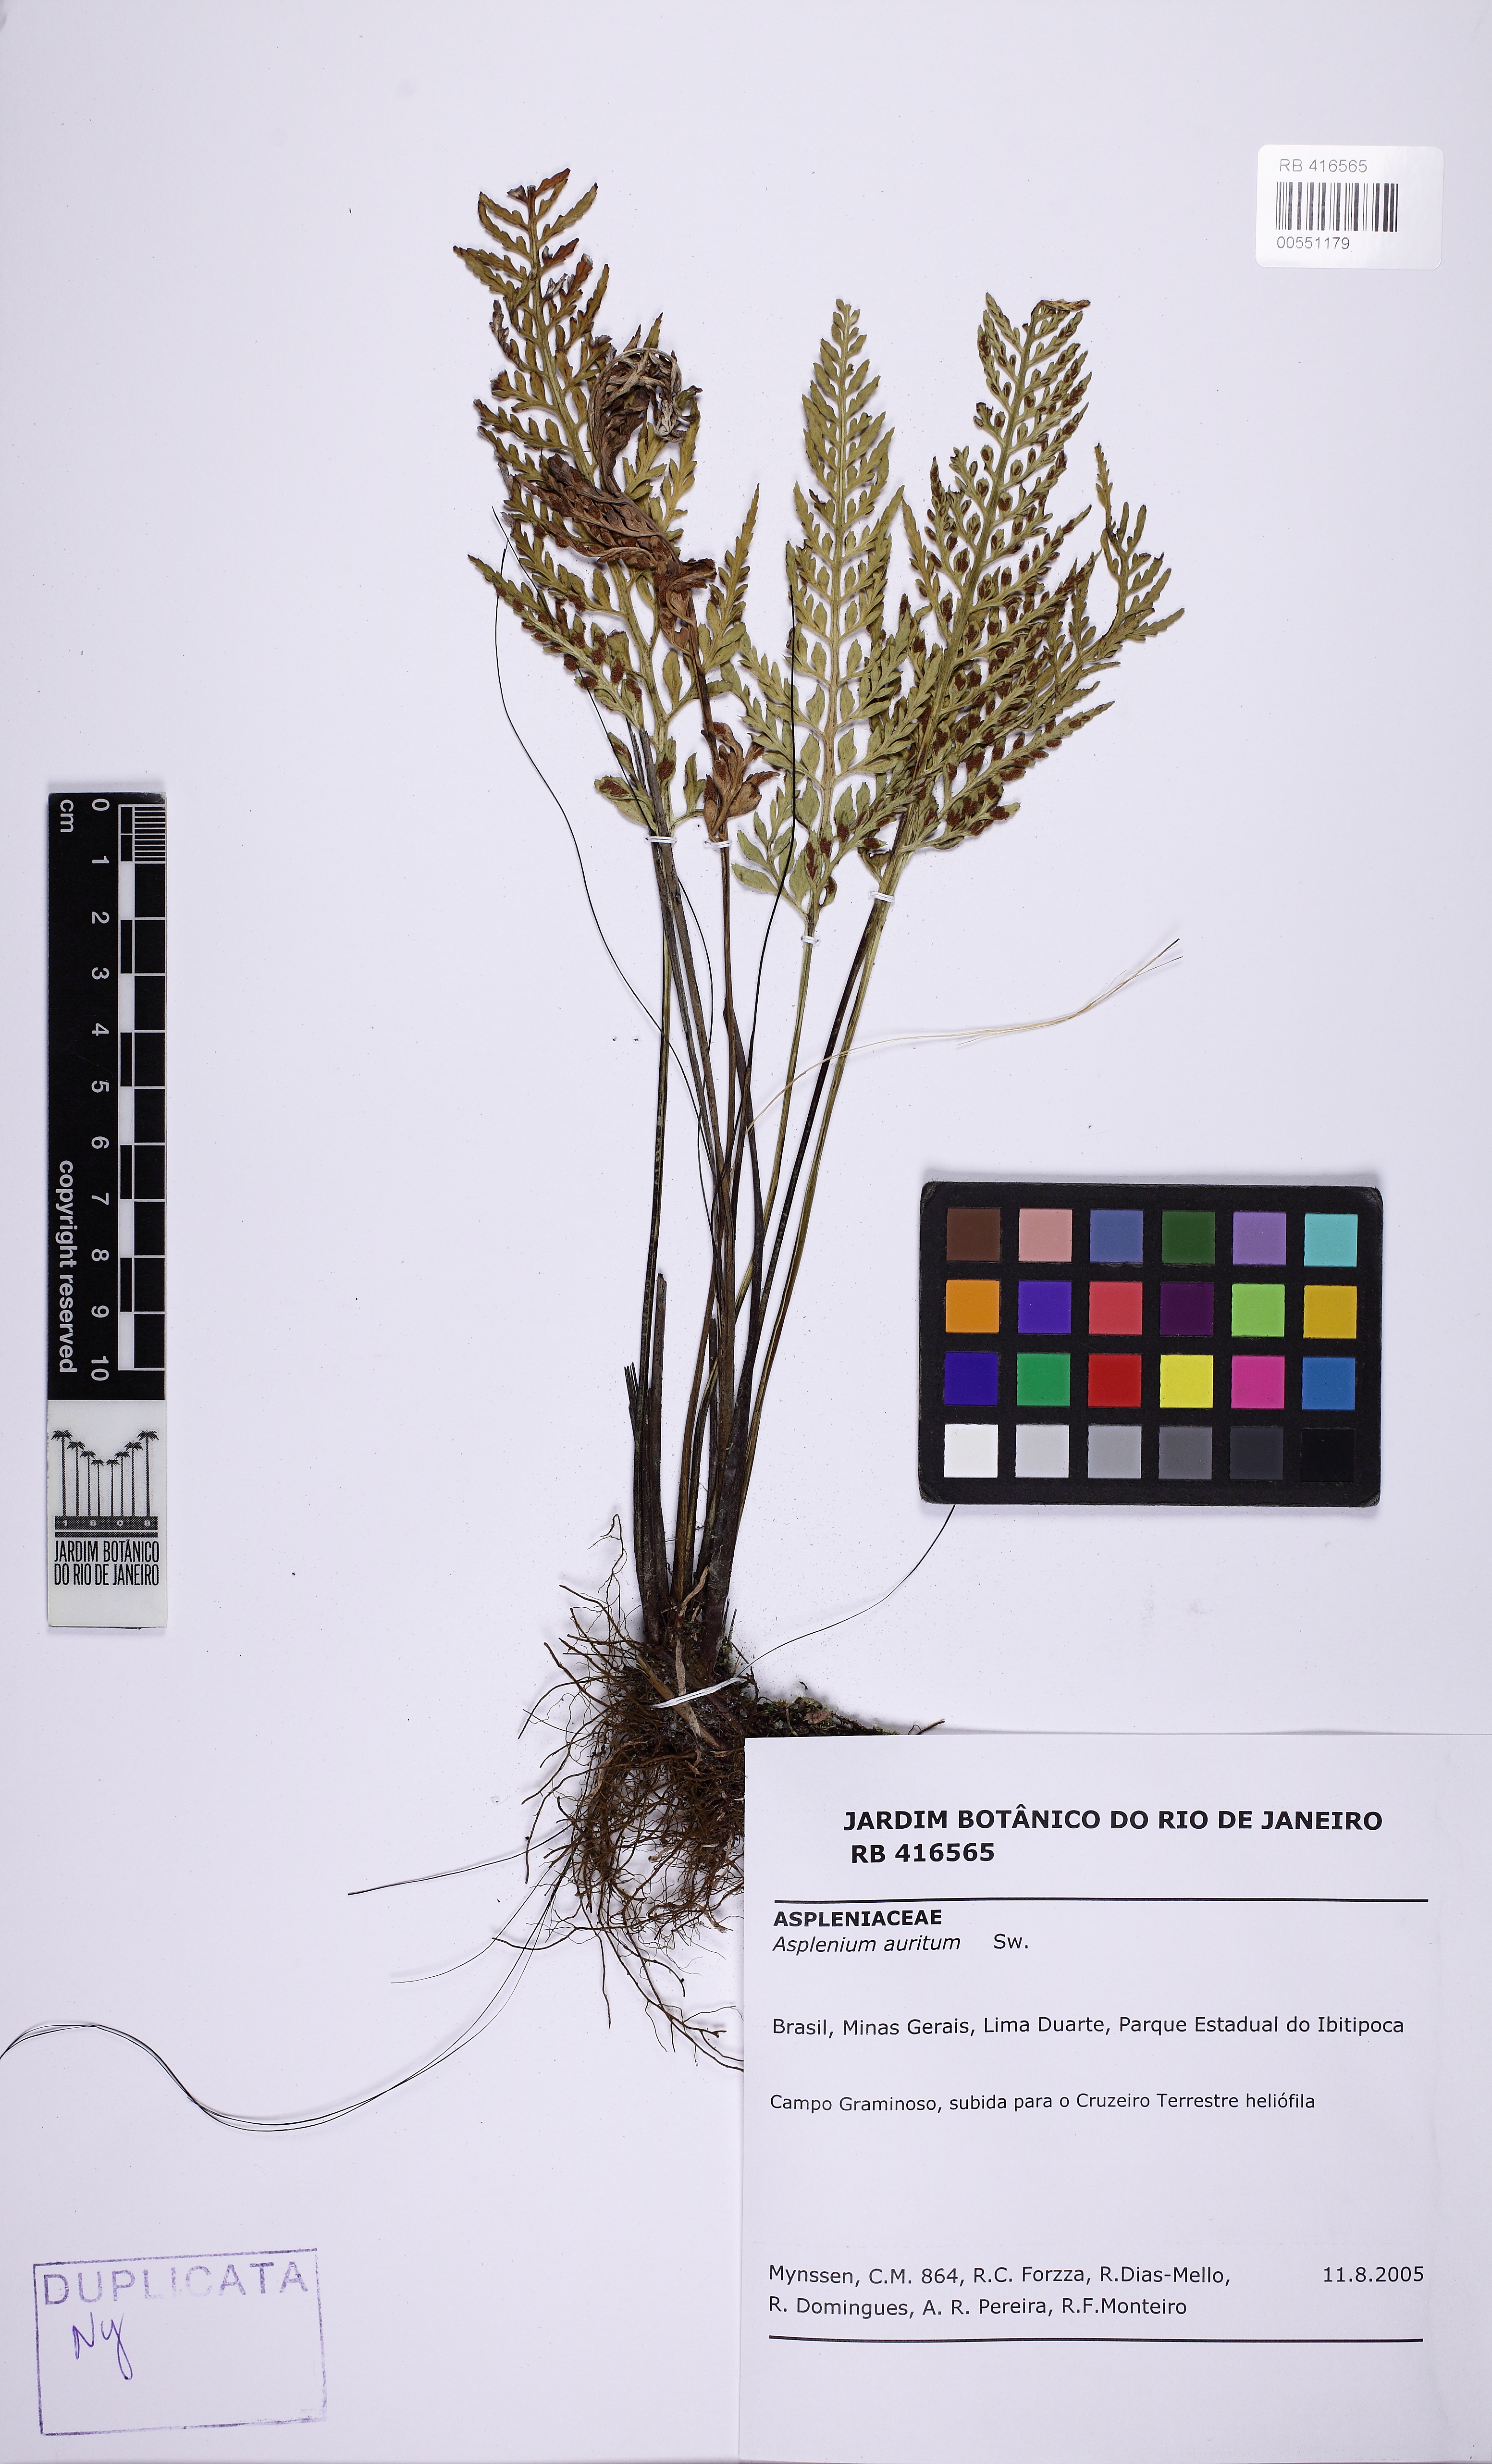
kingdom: Plantae
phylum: Tracheophyta
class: Polypodiopsida
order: Polypodiales
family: Aspleniaceae
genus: Asplenium
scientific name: Asplenium auritum
